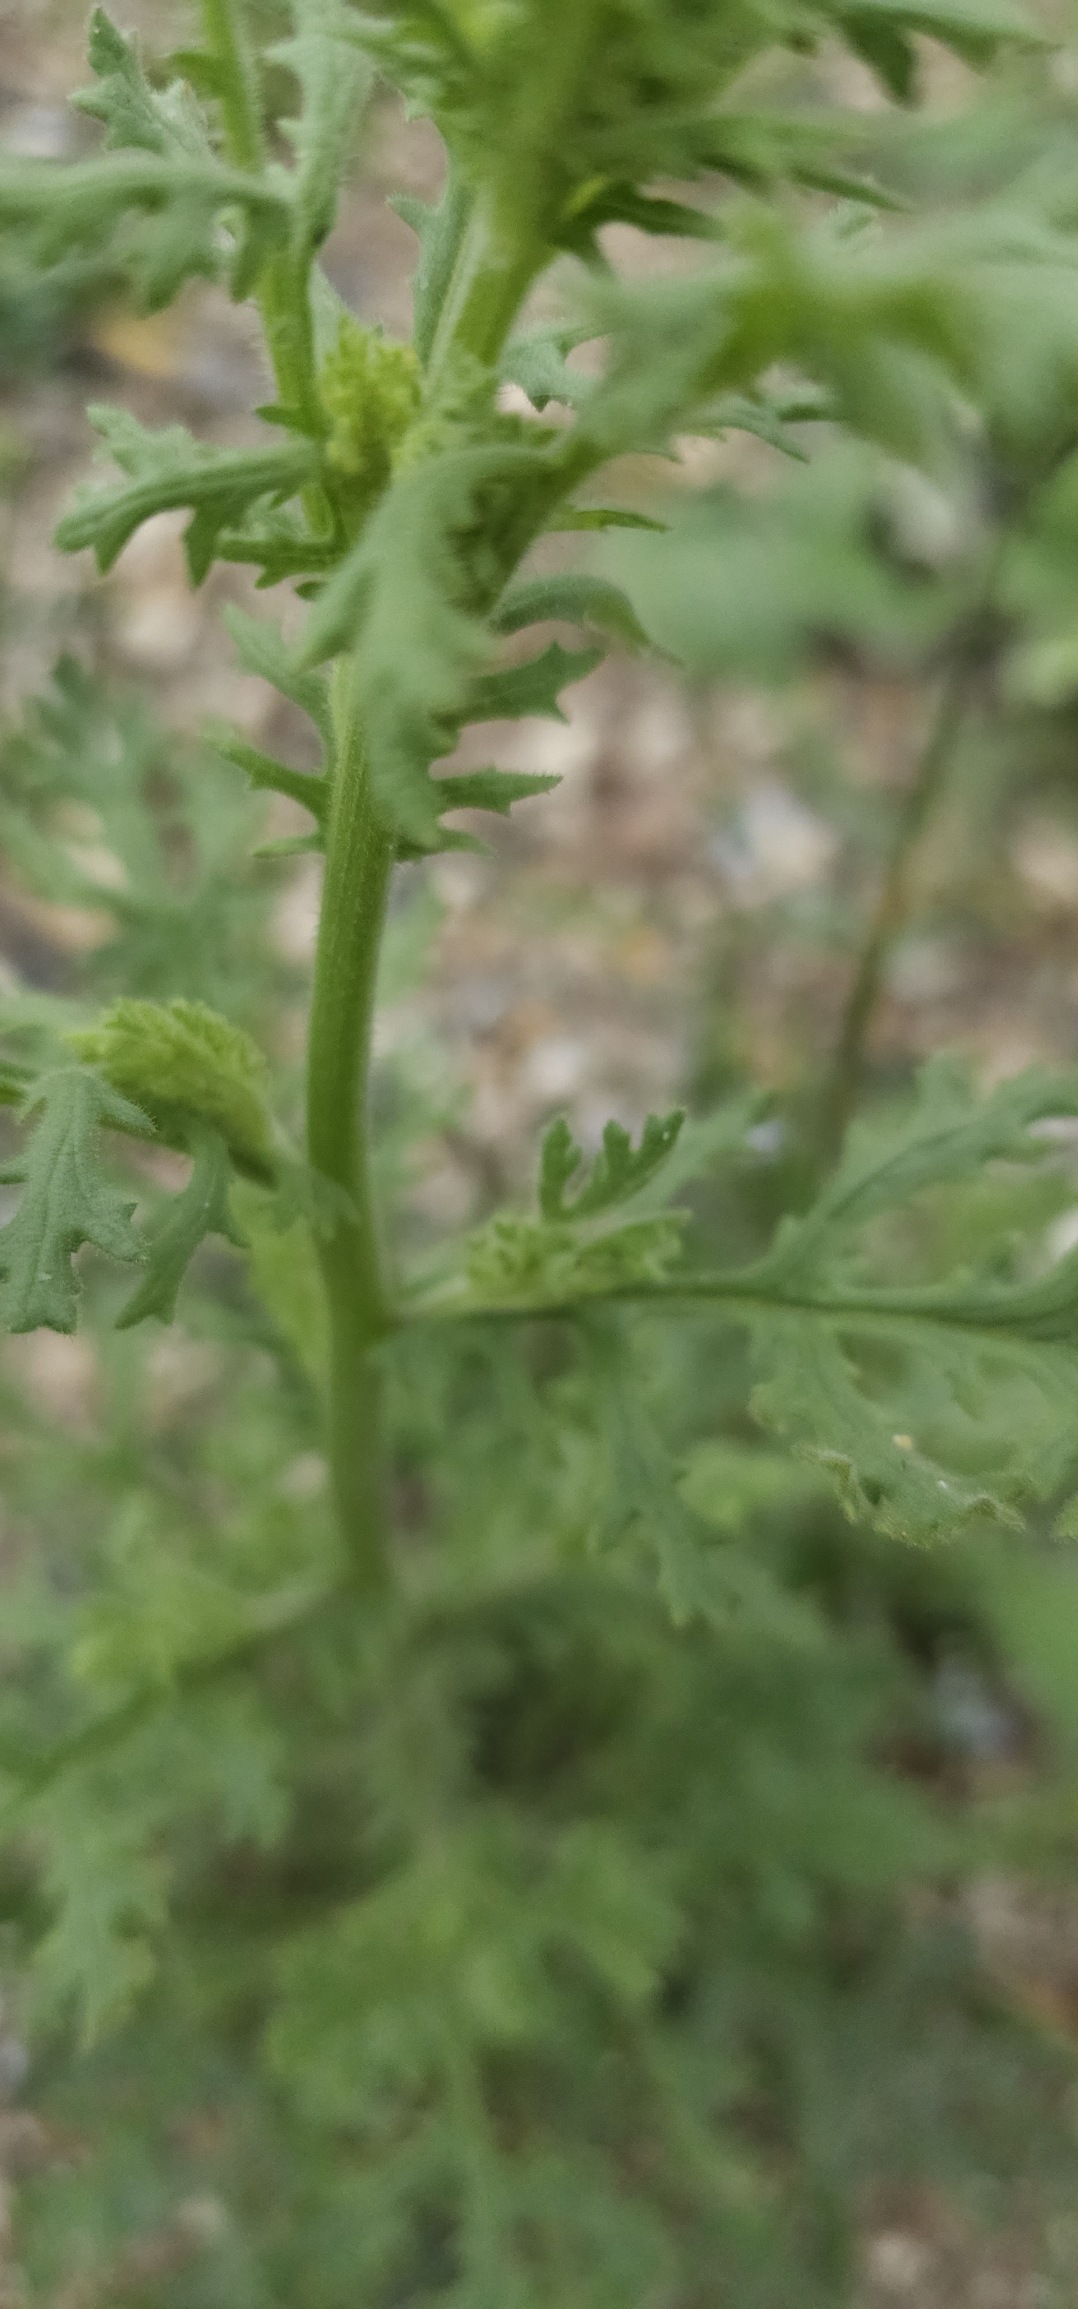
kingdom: Plantae
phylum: Tracheophyta
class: Magnoliopsida
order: Asterales
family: Asteraceae
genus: Senecio
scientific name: Senecio viscosus
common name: Klæbrig brandbæger
